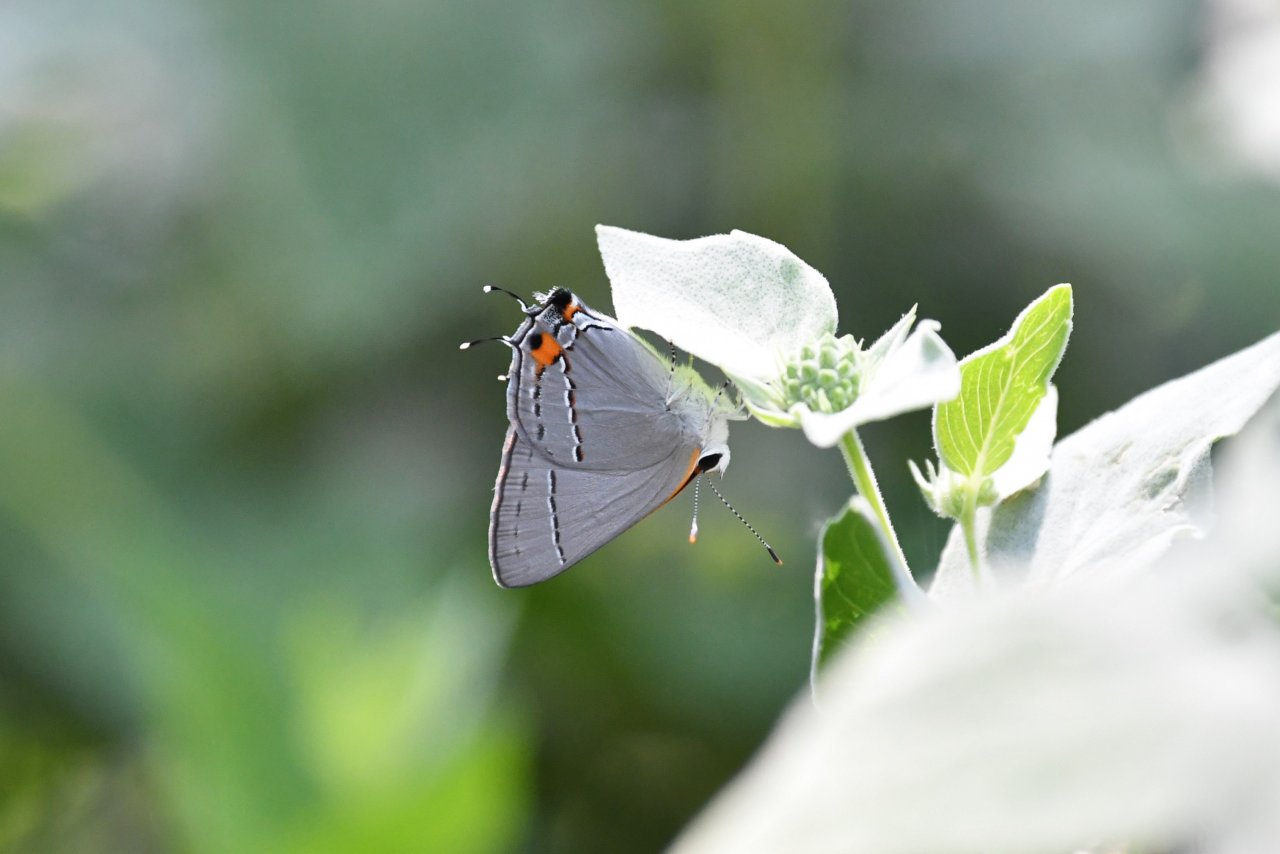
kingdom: Animalia
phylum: Arthropoda
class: Insecta
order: Lepidoptera
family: Lycaenidae
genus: Strymon
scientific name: Strymon melinus
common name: Gray Hairstreak
